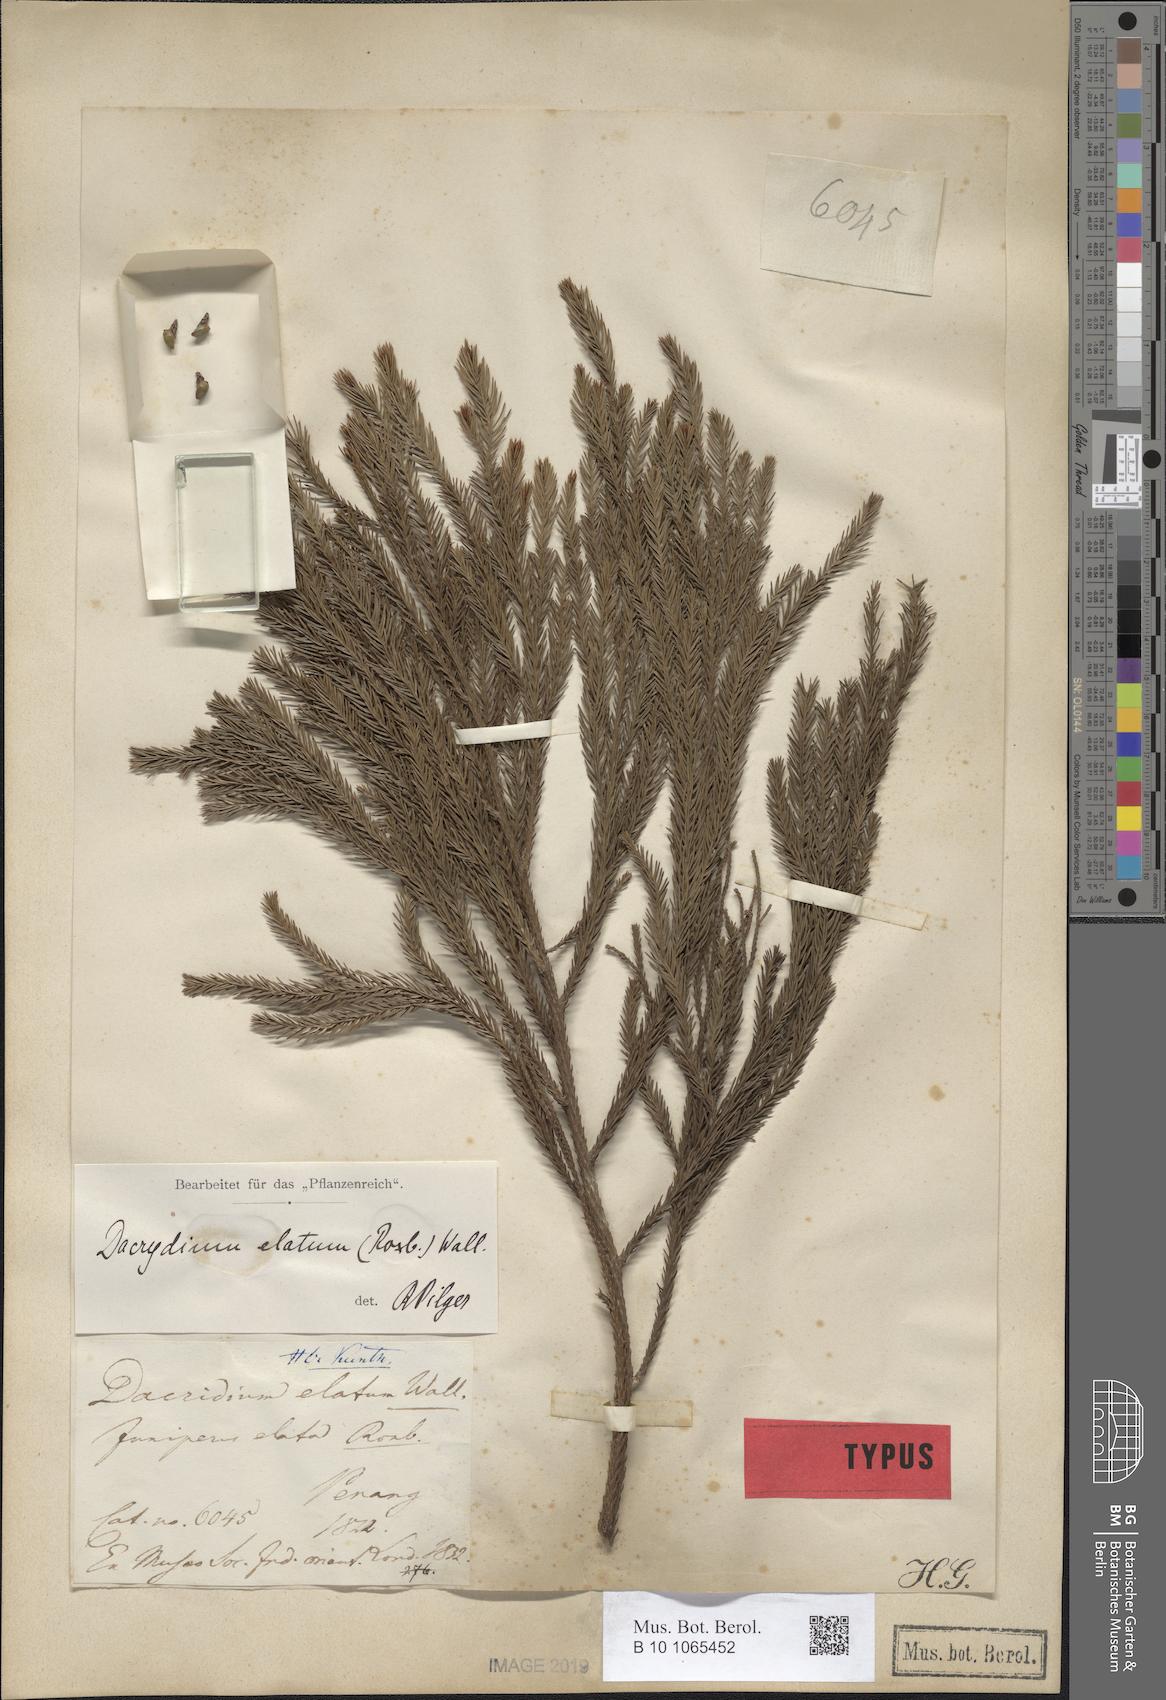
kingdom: Plantae
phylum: Tracheophyta
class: Pinopsida
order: Pinales
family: Podocarpaceae
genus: Dacrydium
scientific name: Dacrydium elatum
